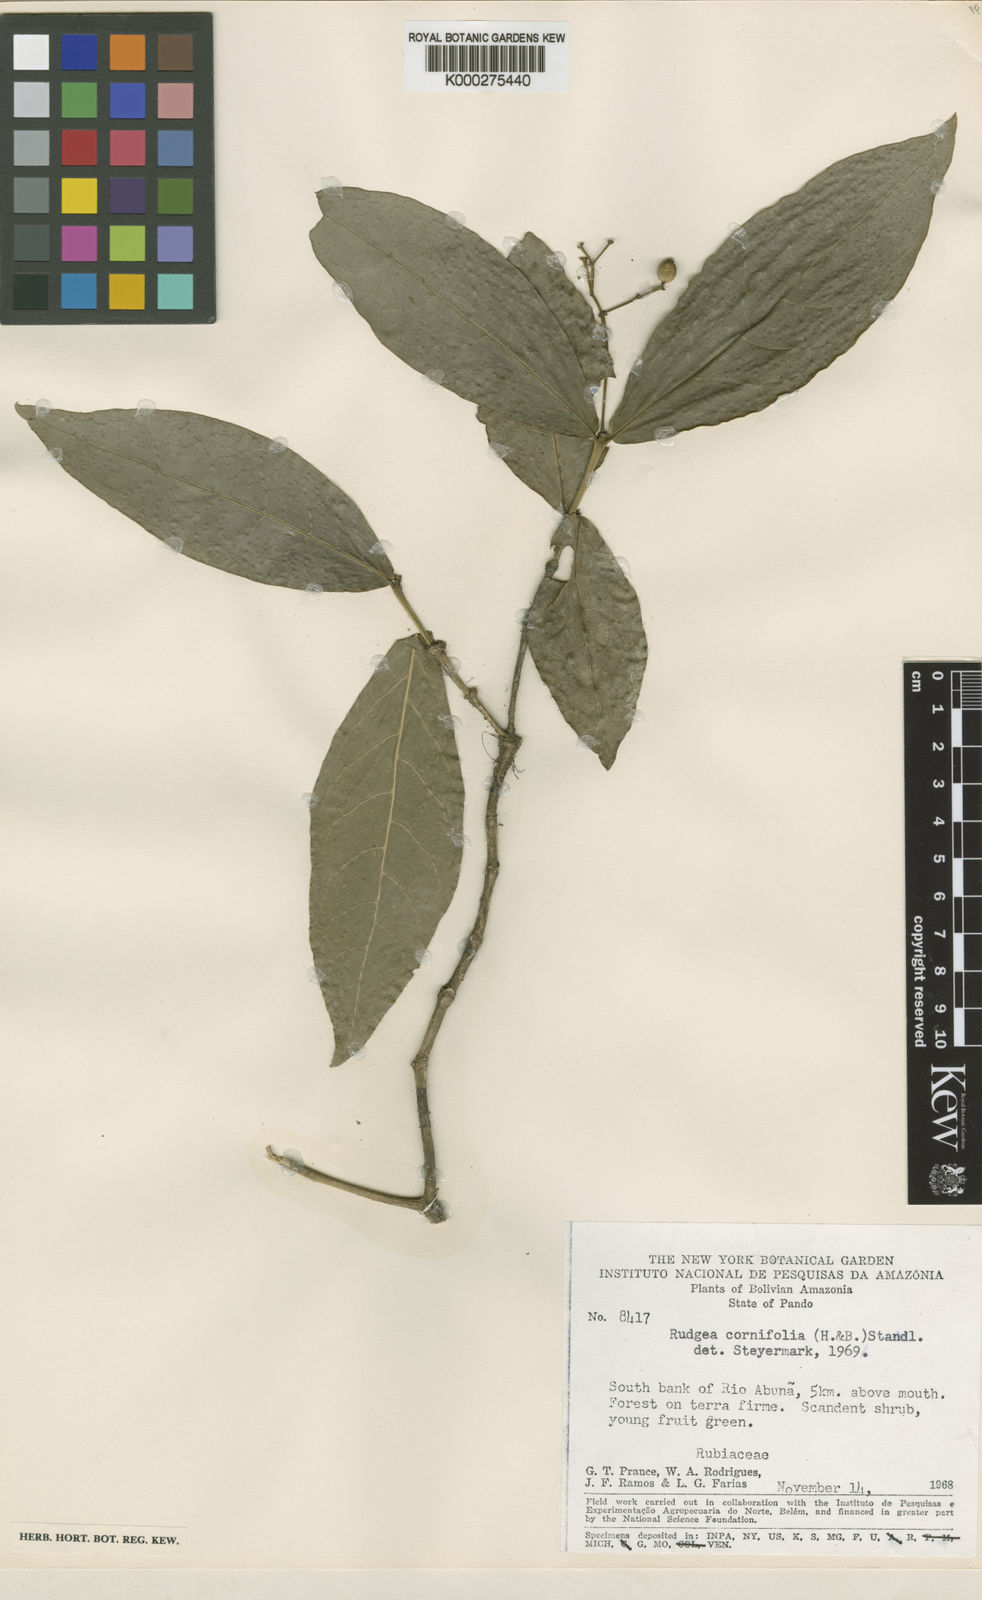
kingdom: Plantae
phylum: Tracheophyta
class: Magnoliopsida
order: Gentianales
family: Rubiaceae
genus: Rudgea
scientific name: Rudgea cornifolia
